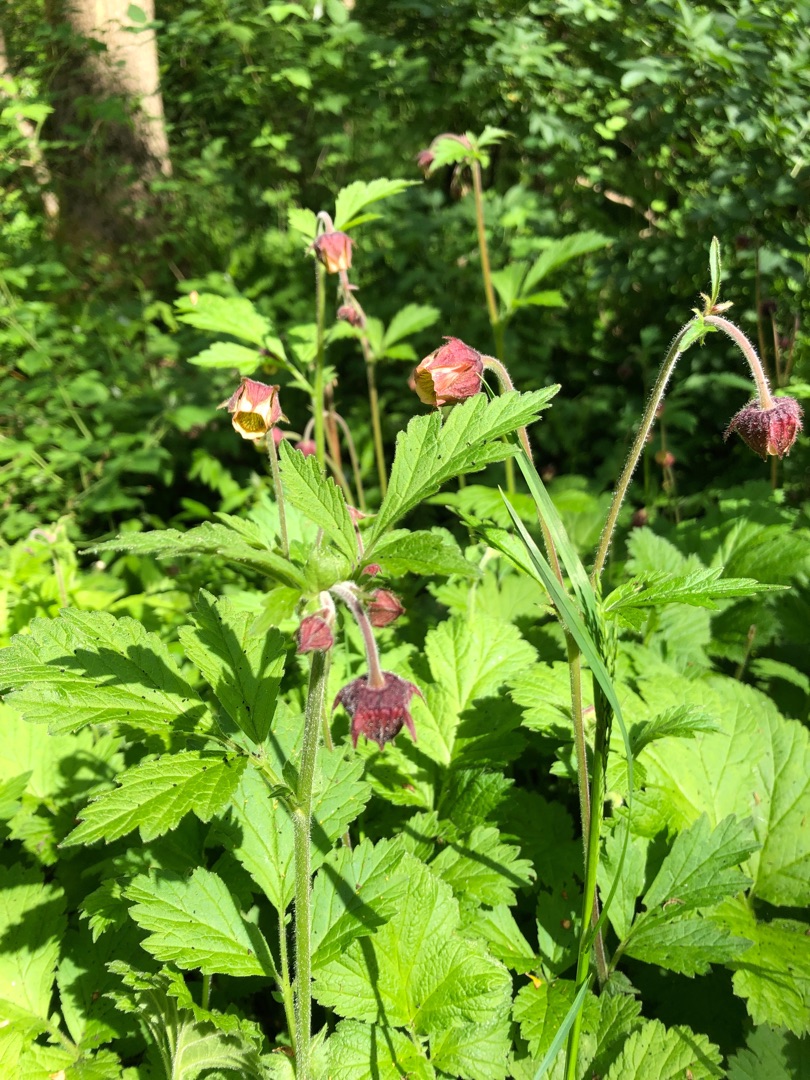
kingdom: Plantae
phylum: Tracheophyta
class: Magnoliopsida
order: Rosales
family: Rosaceae
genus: Geum
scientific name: Geum rivale
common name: Eng-nellikerod
